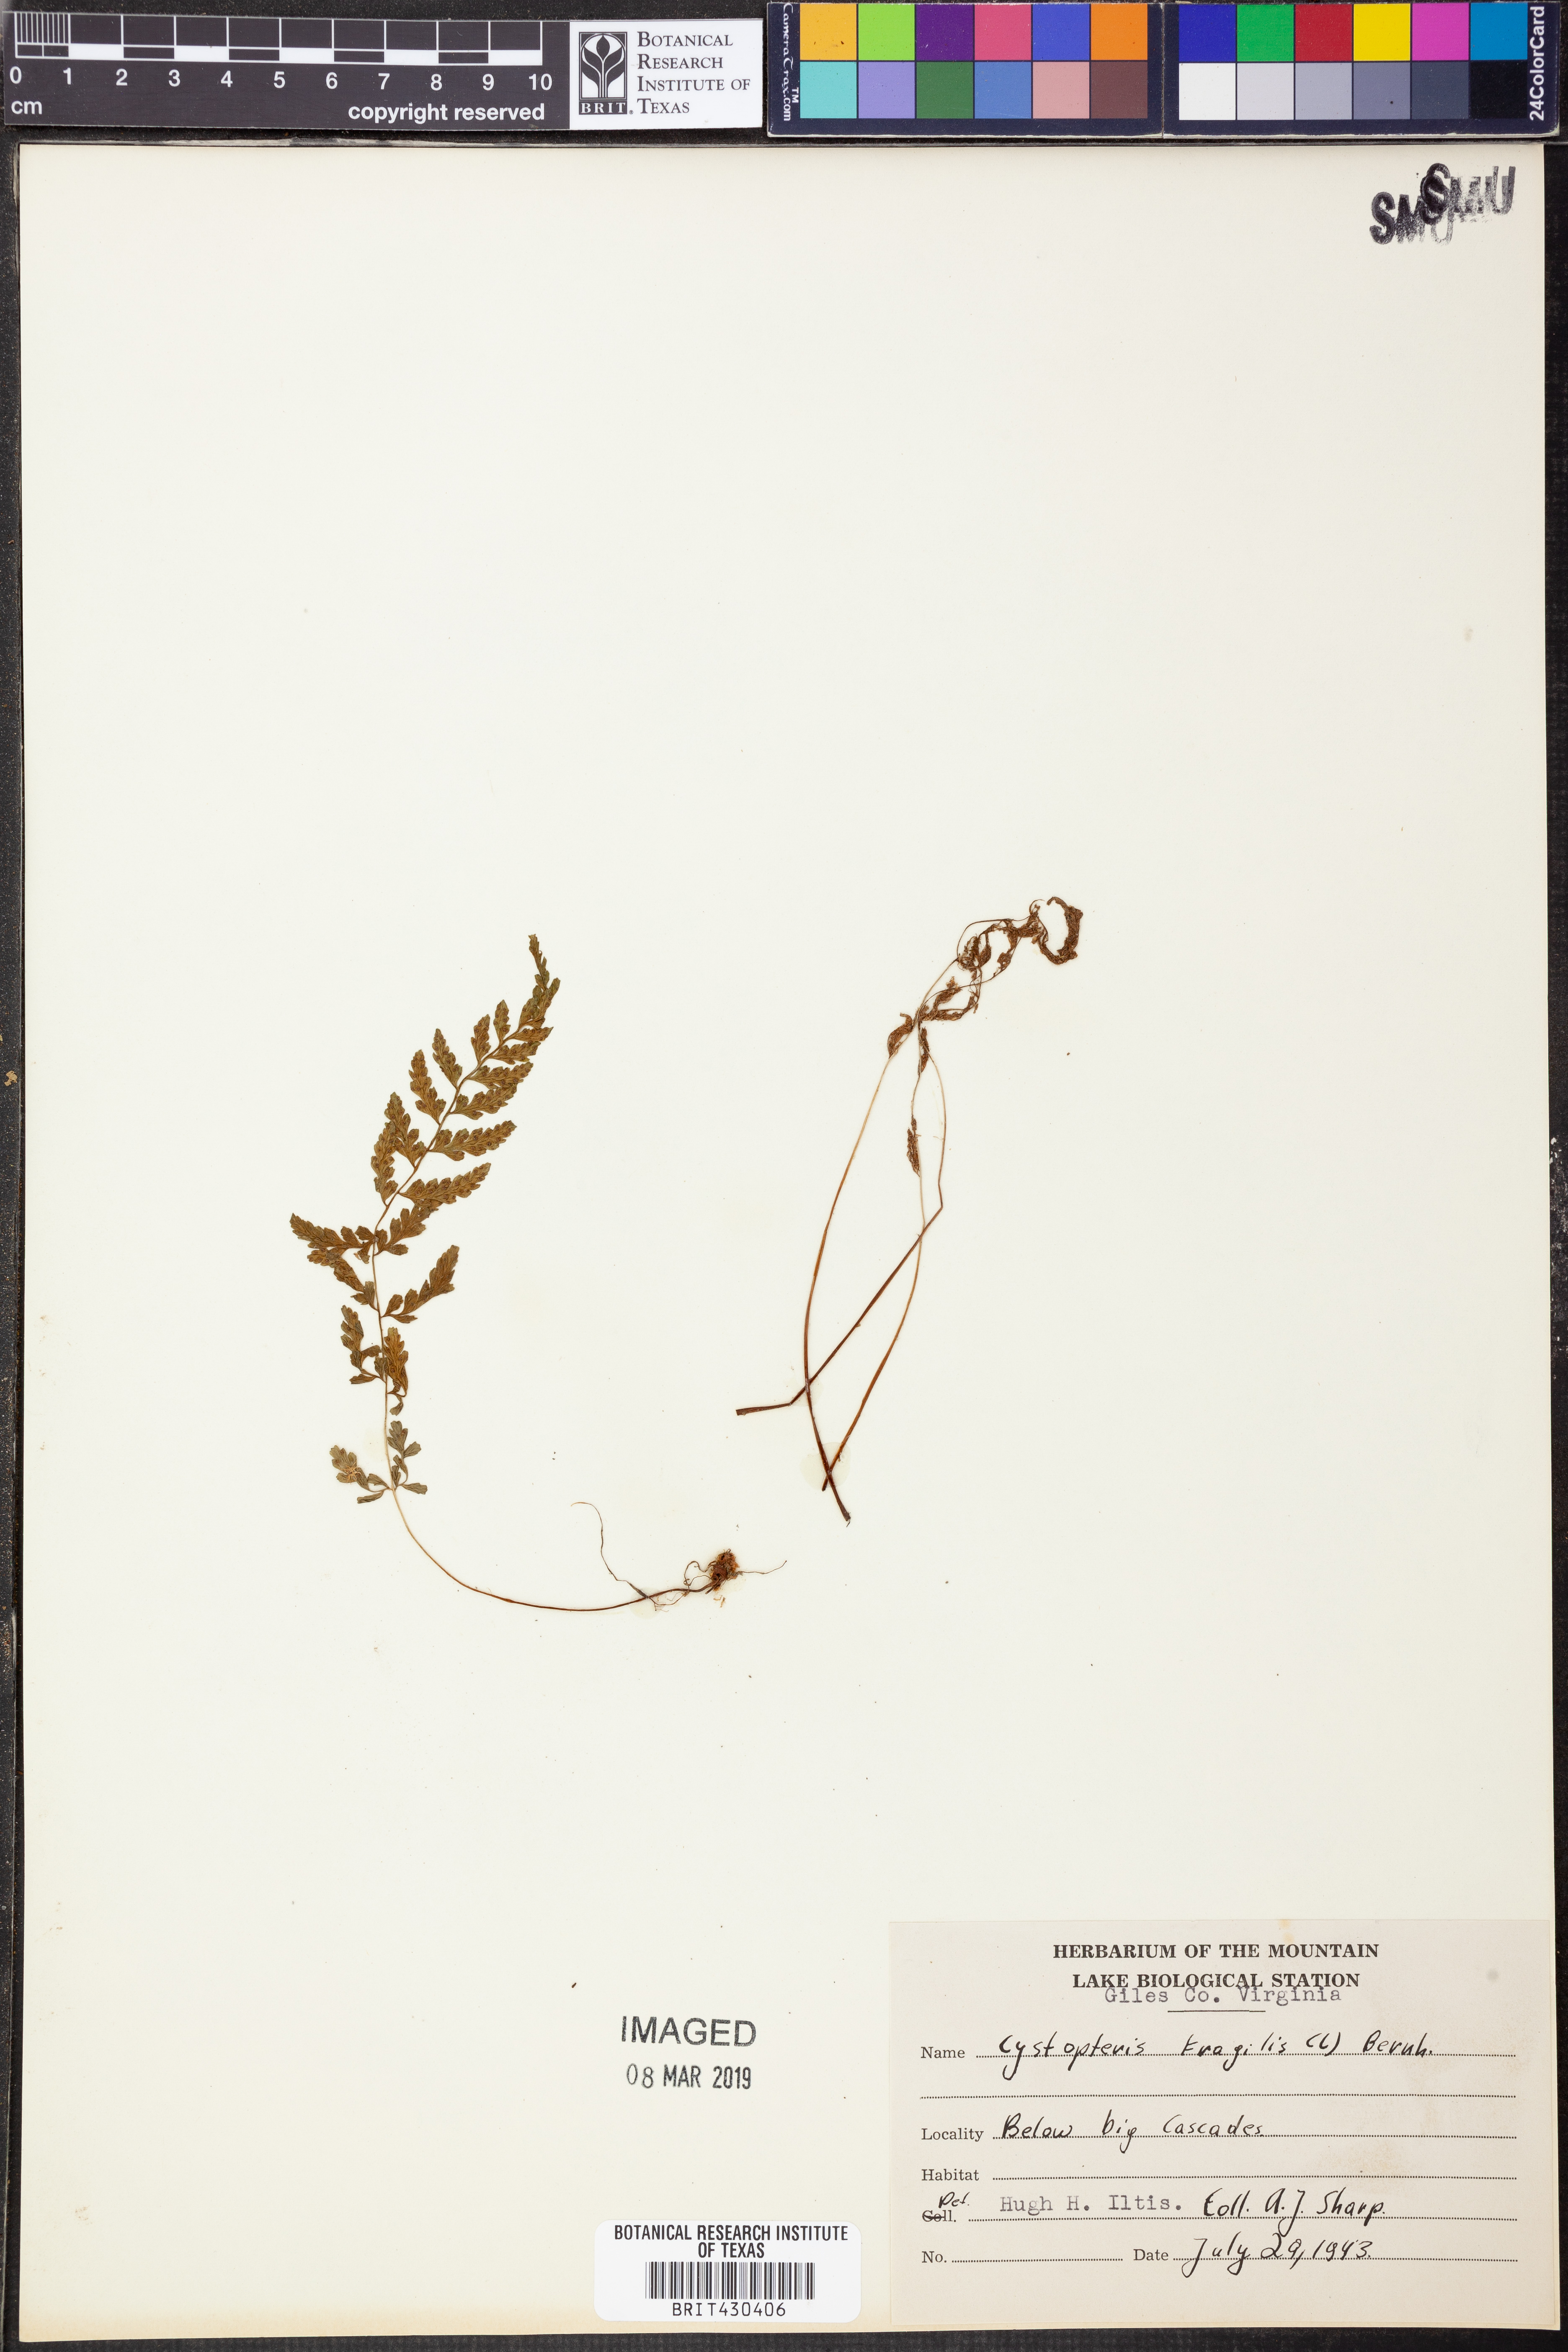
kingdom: Plantae
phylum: Tracheophyta
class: Polypodiopsida
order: Polypodiales
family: Cystopteridaceae
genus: Cystopteris
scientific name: Cystopteris fragilis
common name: Brittle bladder fern
